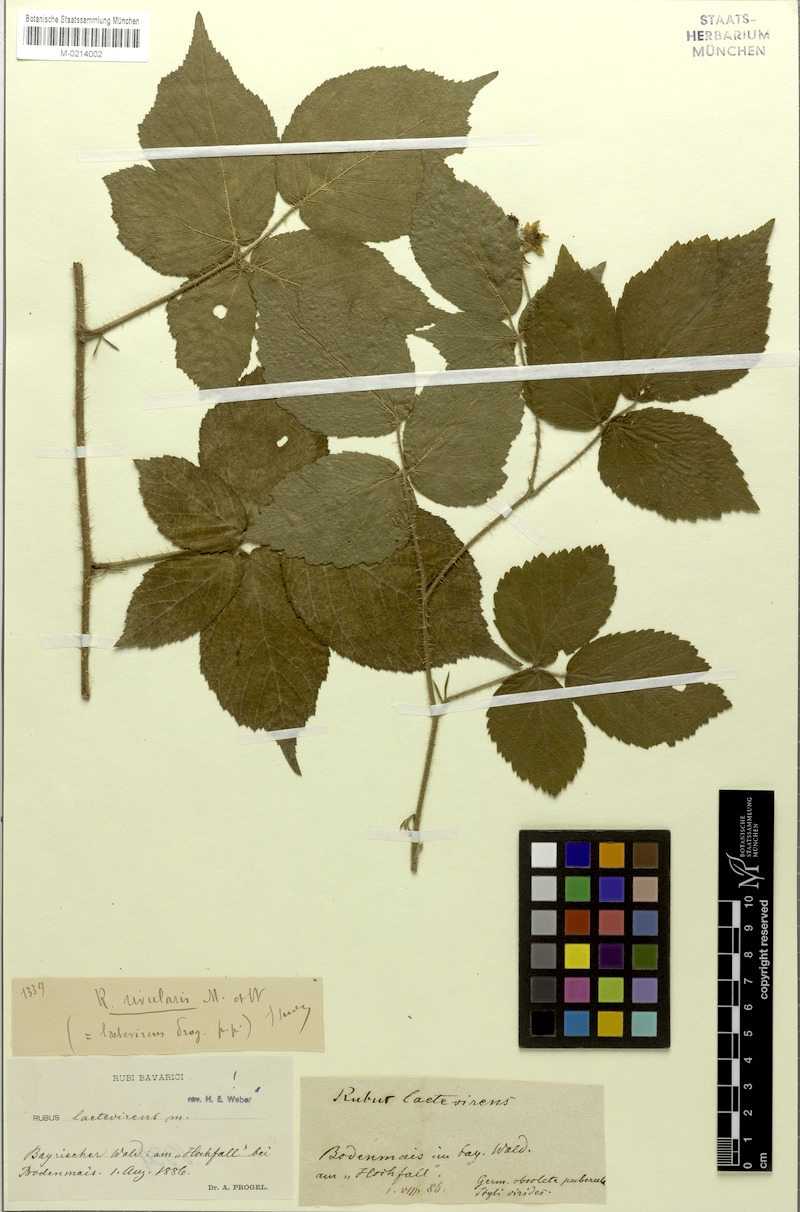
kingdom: Plantae
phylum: Tracheophyta
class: Magnoliopsida
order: Rosales
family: Rosaceae
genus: Rubus
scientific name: Rubus laetevirens
